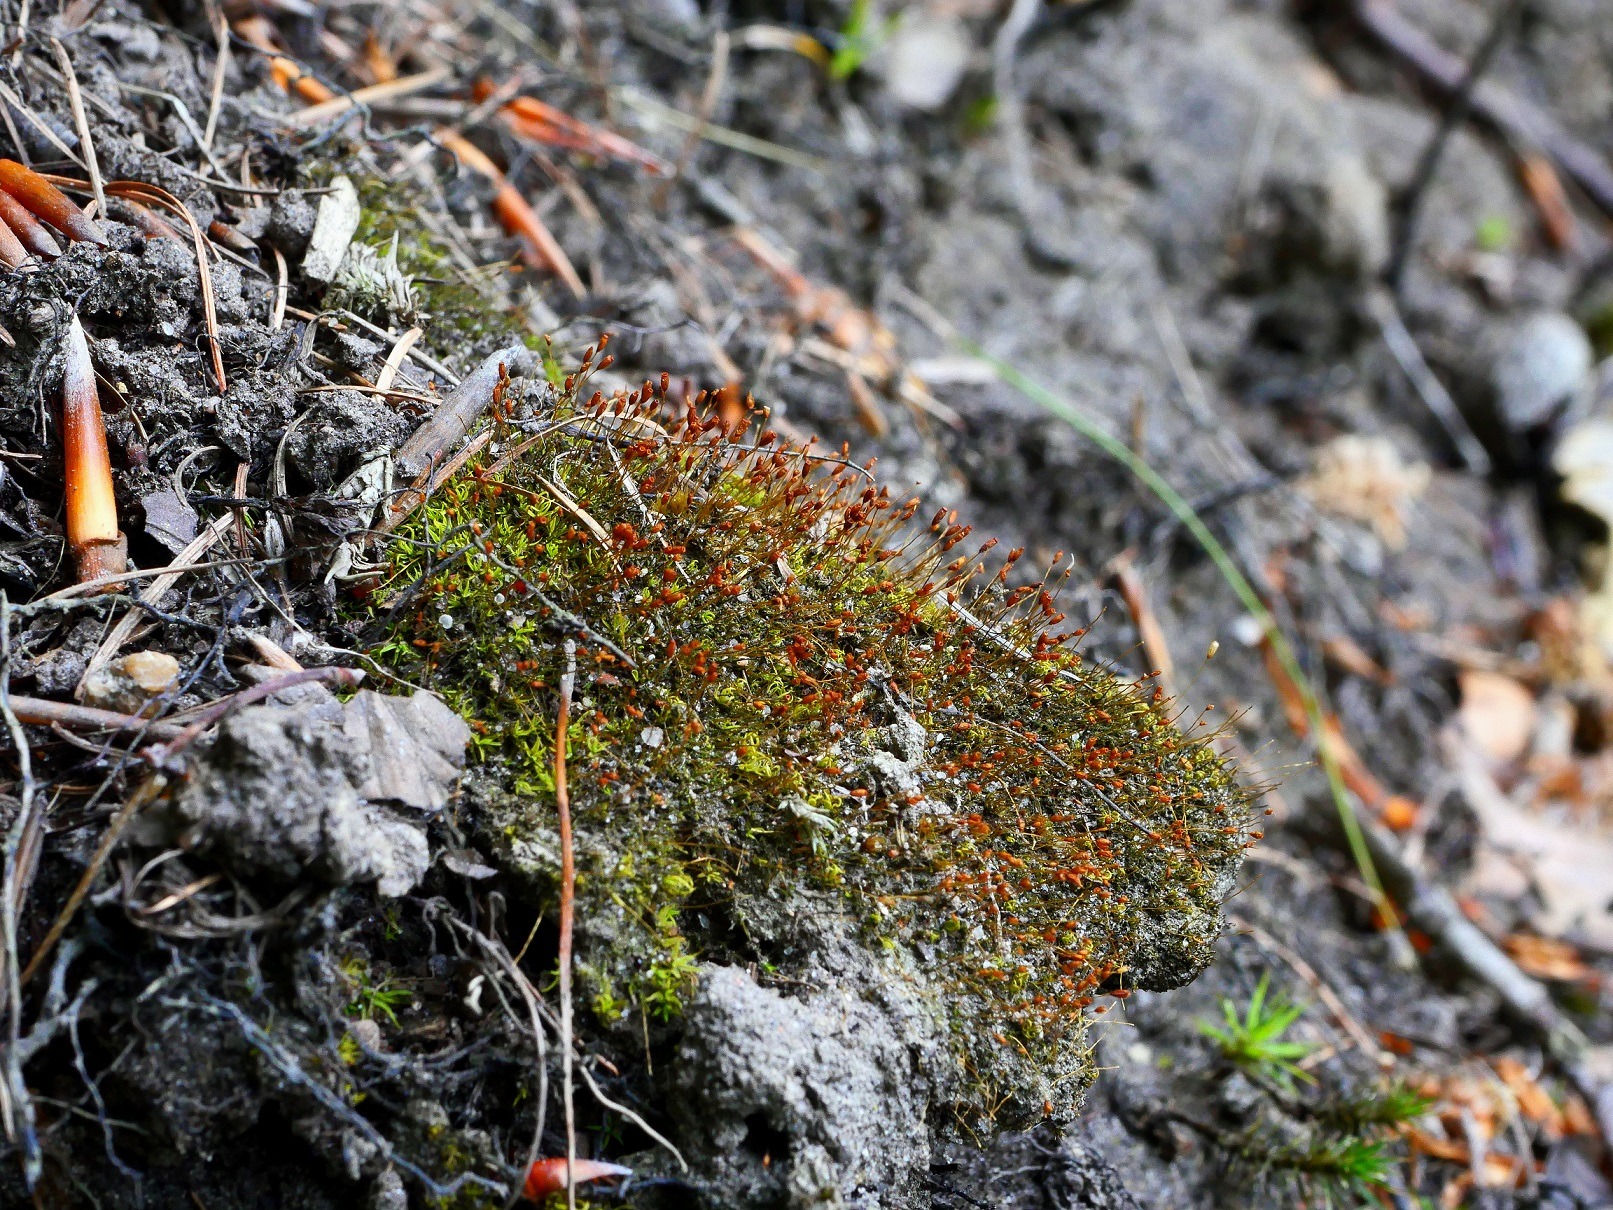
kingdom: Plantae
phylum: Bryophyta
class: Bryopsida
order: Pottiales
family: Pottiaceae
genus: Weissia
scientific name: Weissia controversa
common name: Smaltandet krusmos
